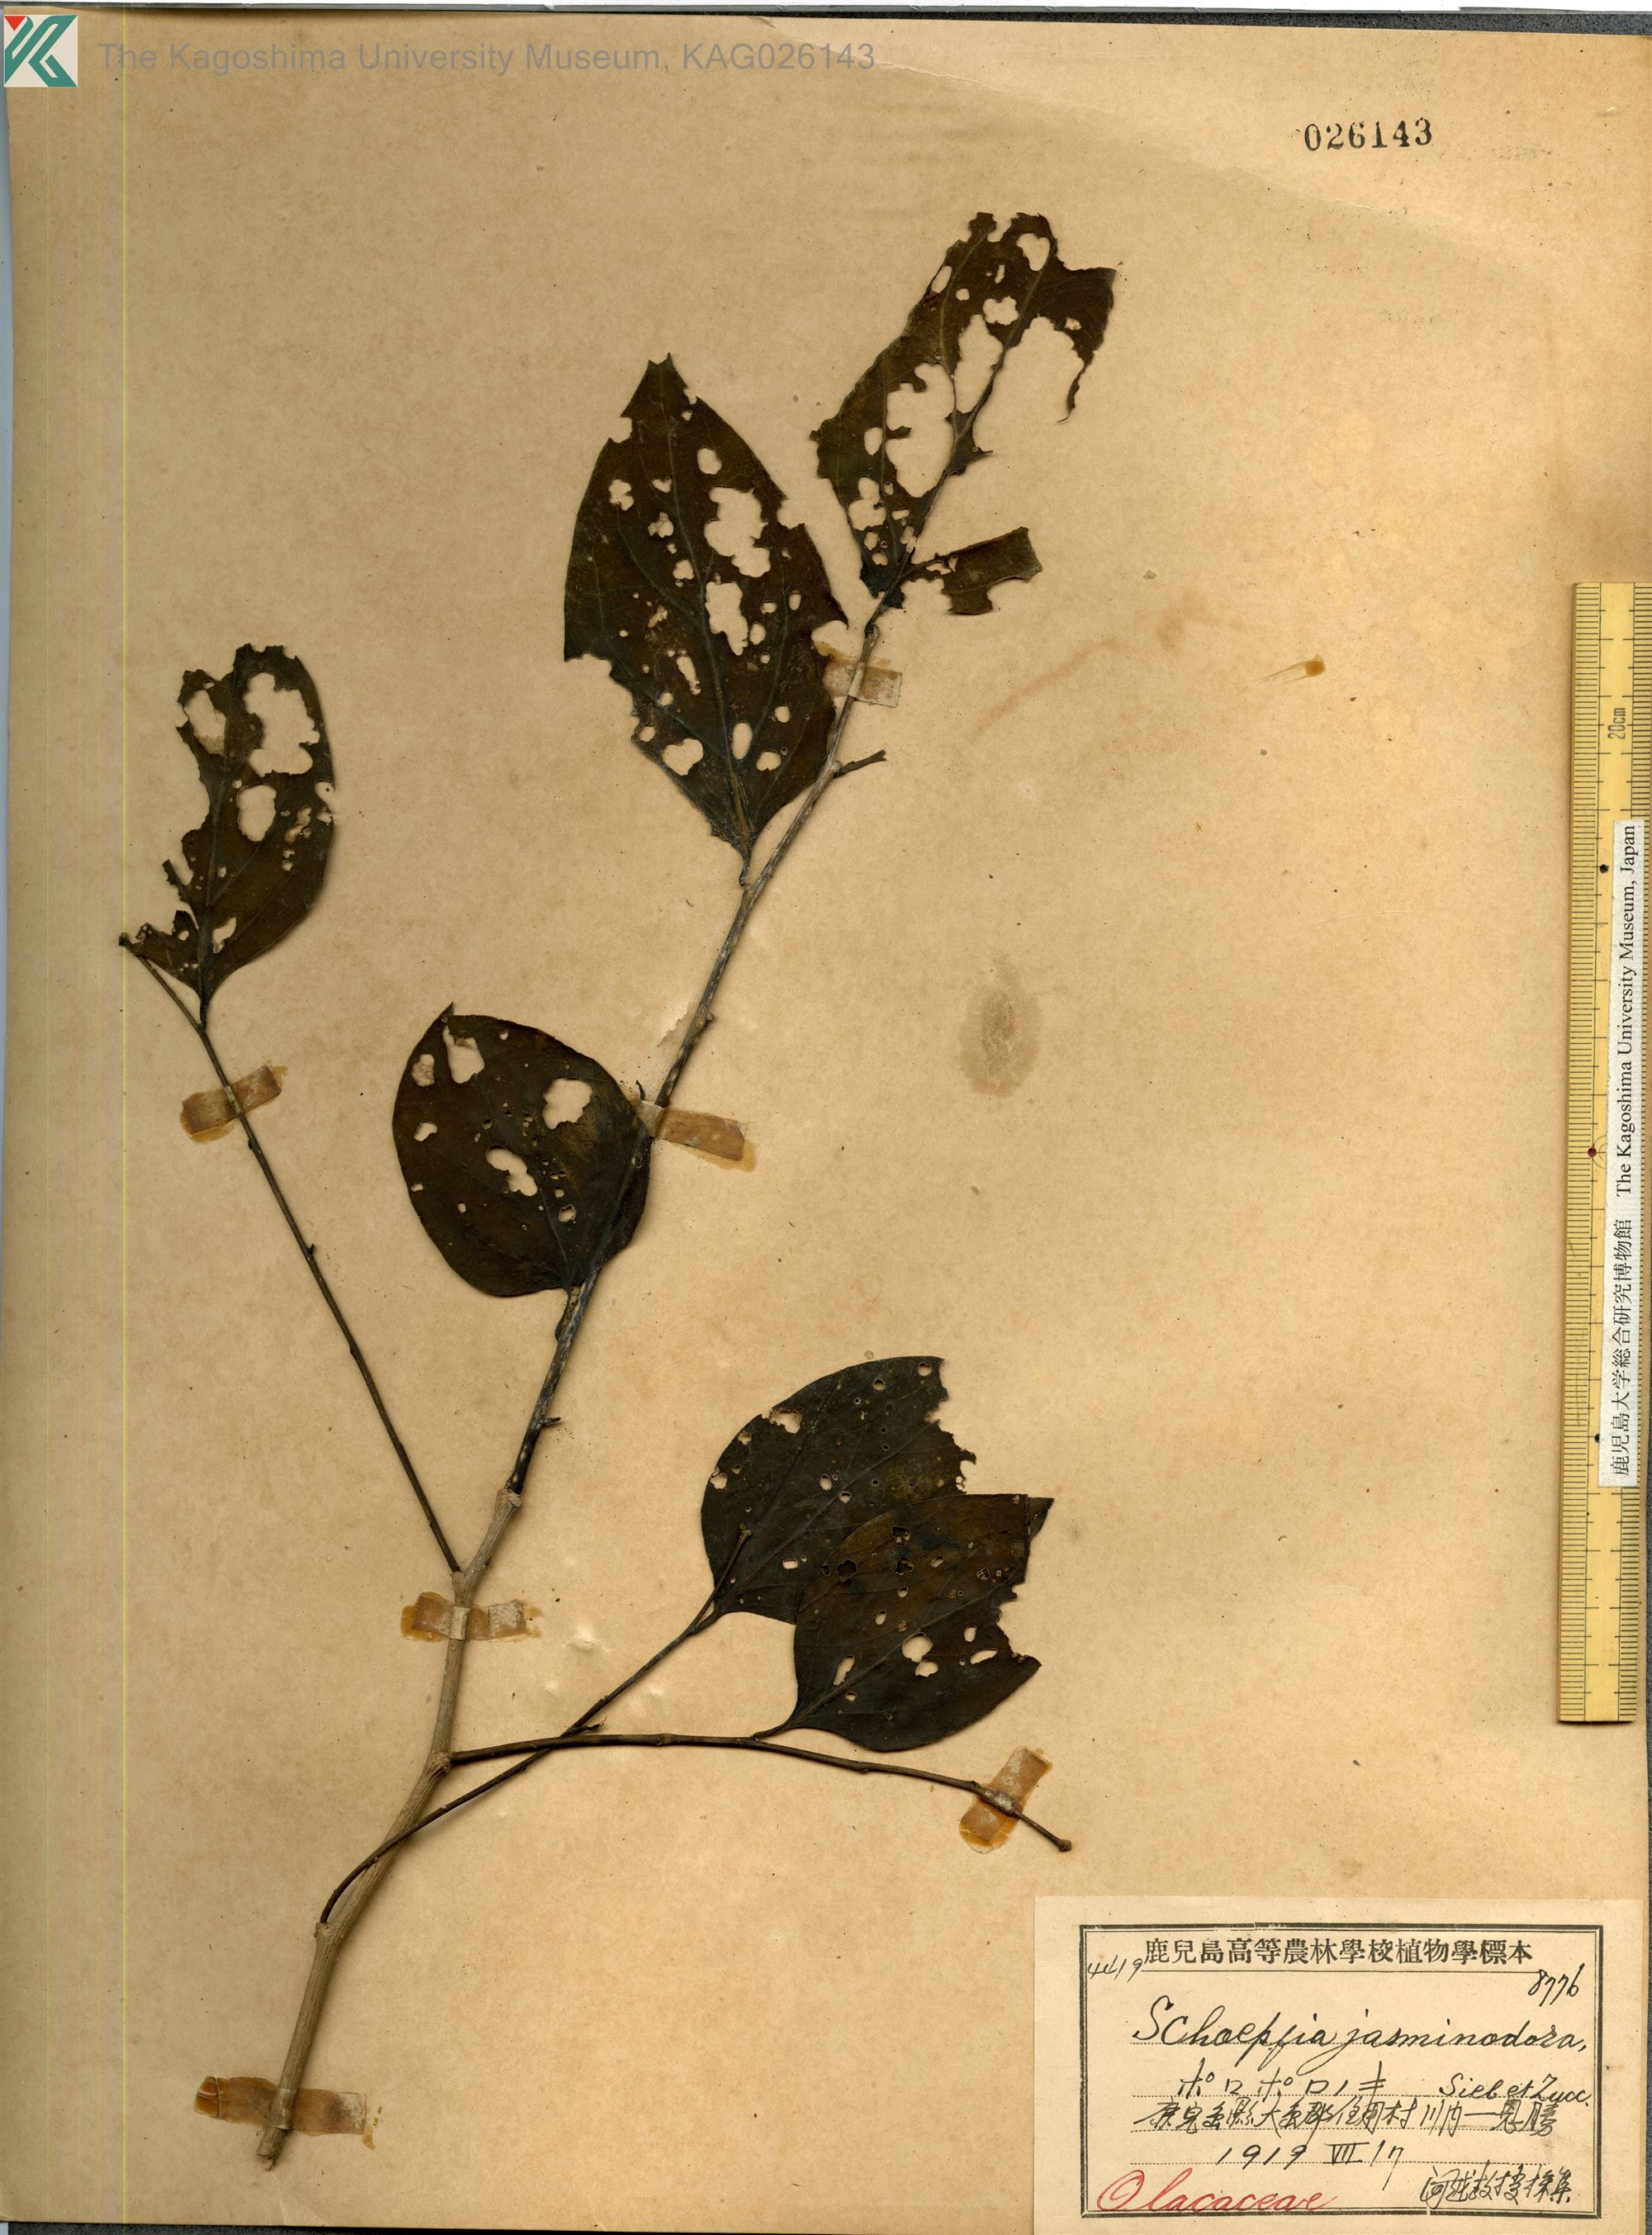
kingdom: Plantae
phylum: Tracheophyta
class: Magnoliopsida
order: Santalales
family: Schoepfiaceae
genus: Schoepfia
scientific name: Schoepfia jasminodora
